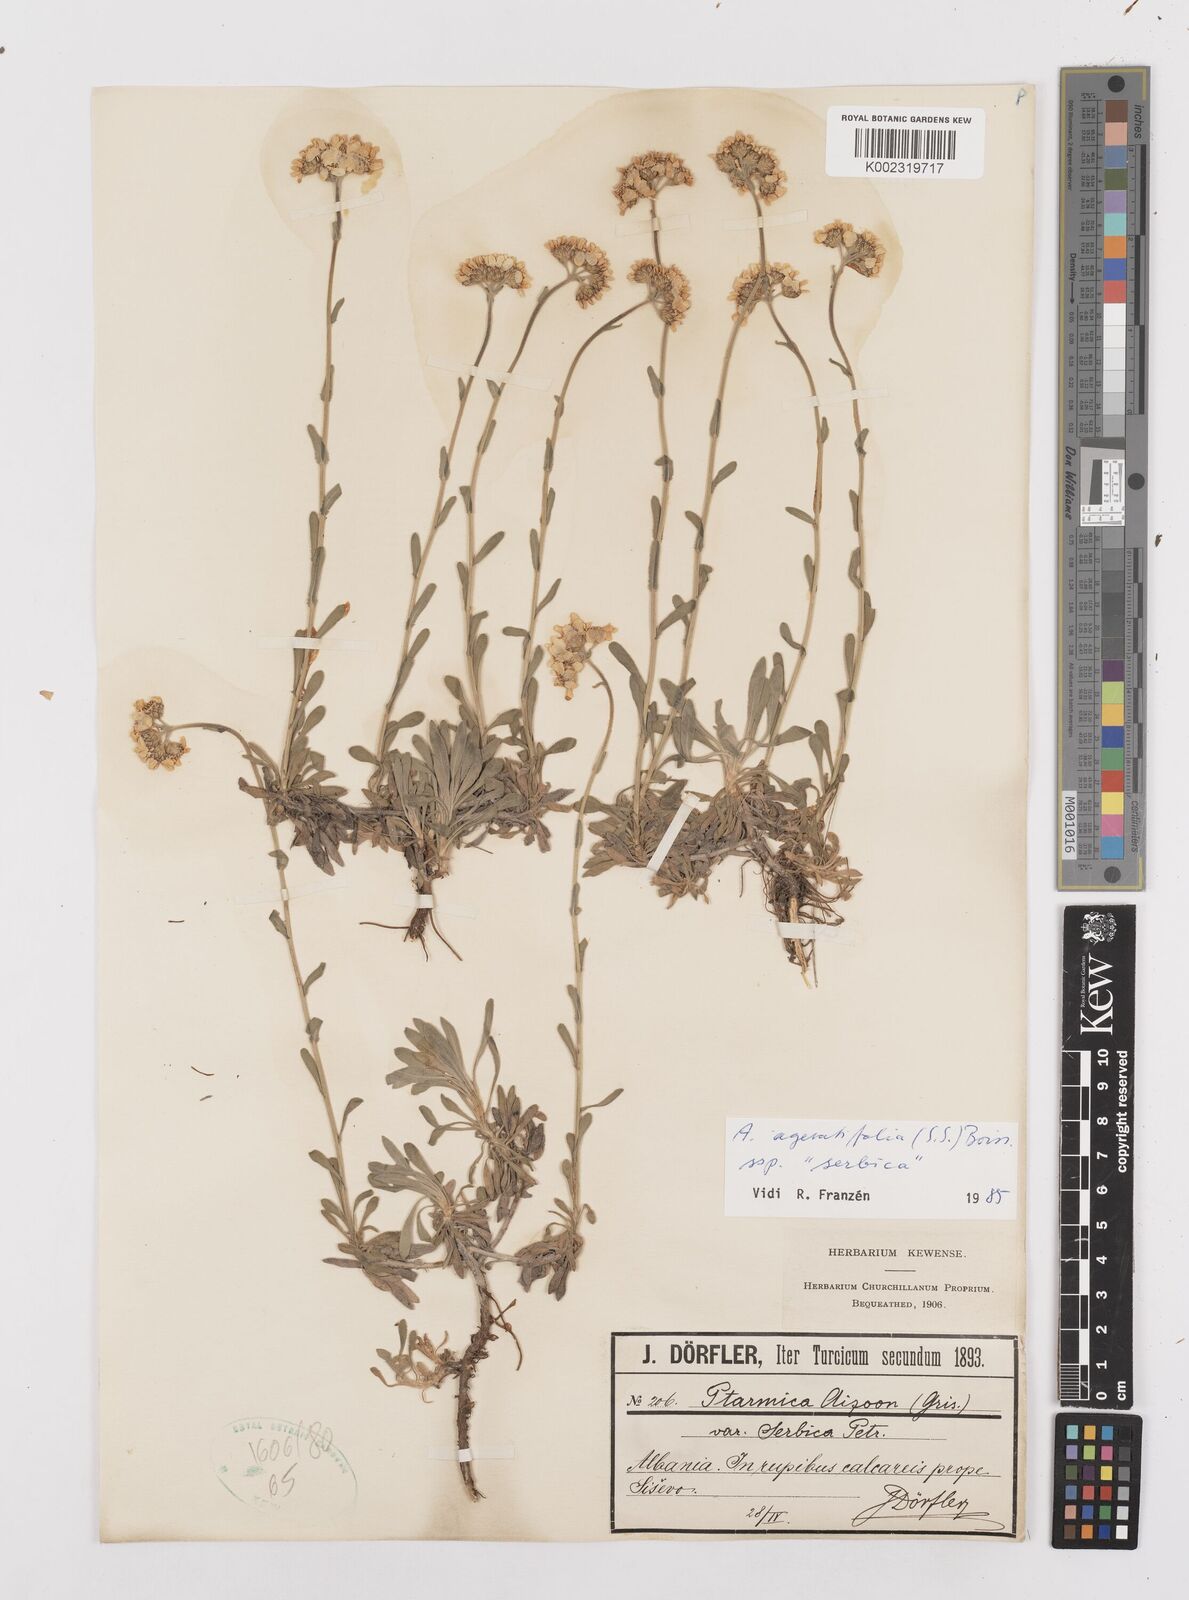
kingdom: Plantae
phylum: Tracheophyta
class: Magnoliopsida
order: Asterales
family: Asteraceae
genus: Achillea
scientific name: Achillea ageratifolia
